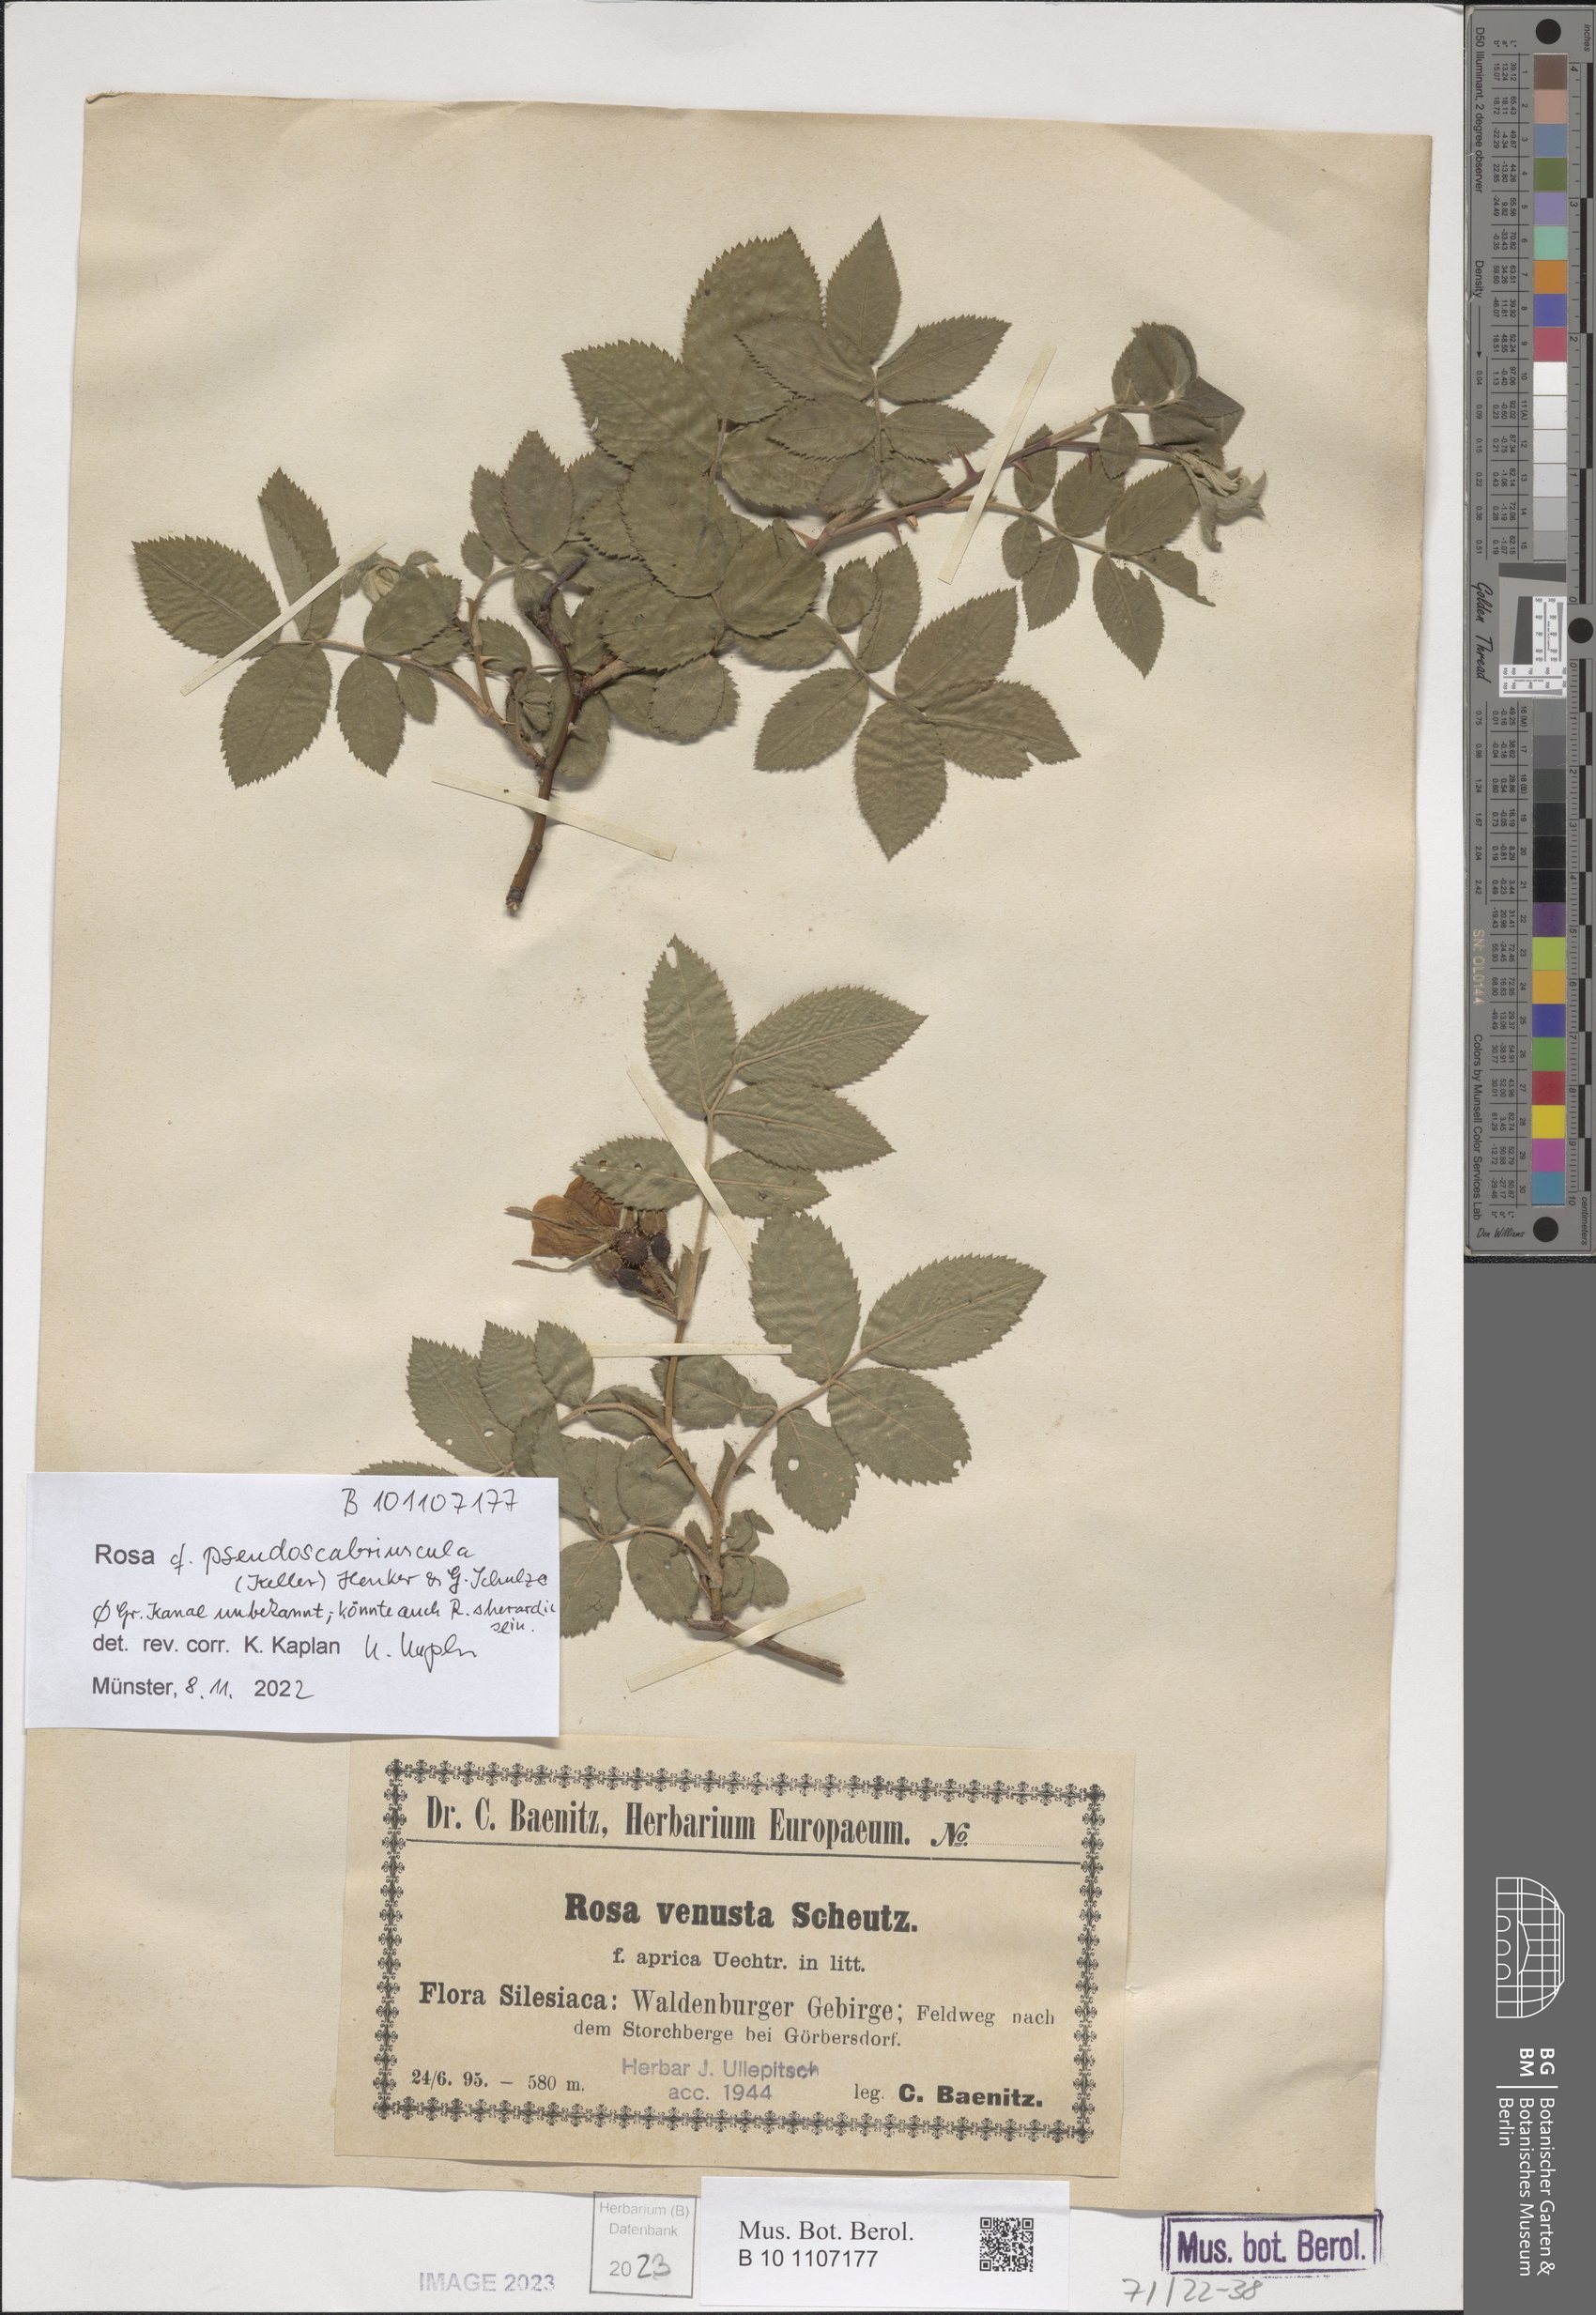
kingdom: Plantae
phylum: Tracheophyta
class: Magnoliopsida
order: Rosales
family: Rosaceae
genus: Rosa
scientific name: Rosa pseudoscabriuscula
